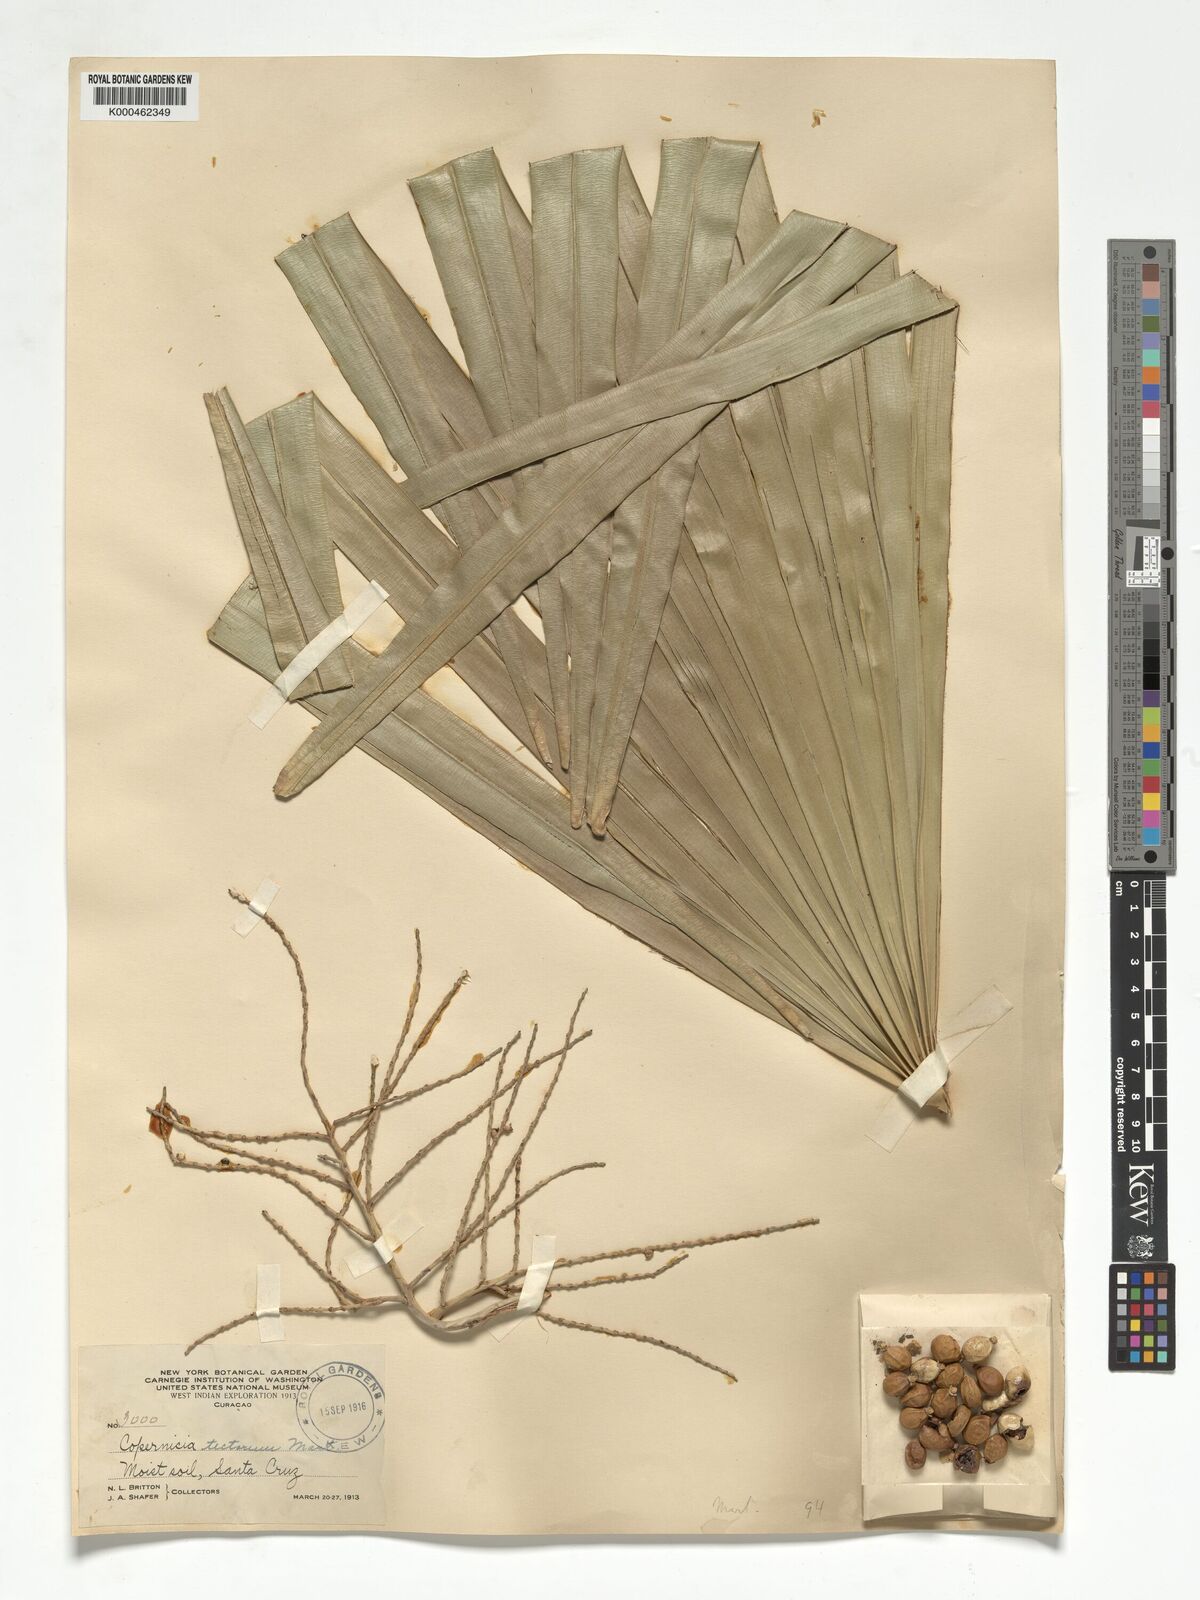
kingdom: Plantae
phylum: Tracheophyta
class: Liliopsida
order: Arecales
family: Arecaceae
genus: Copernicia
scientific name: Copernicia tectorum
